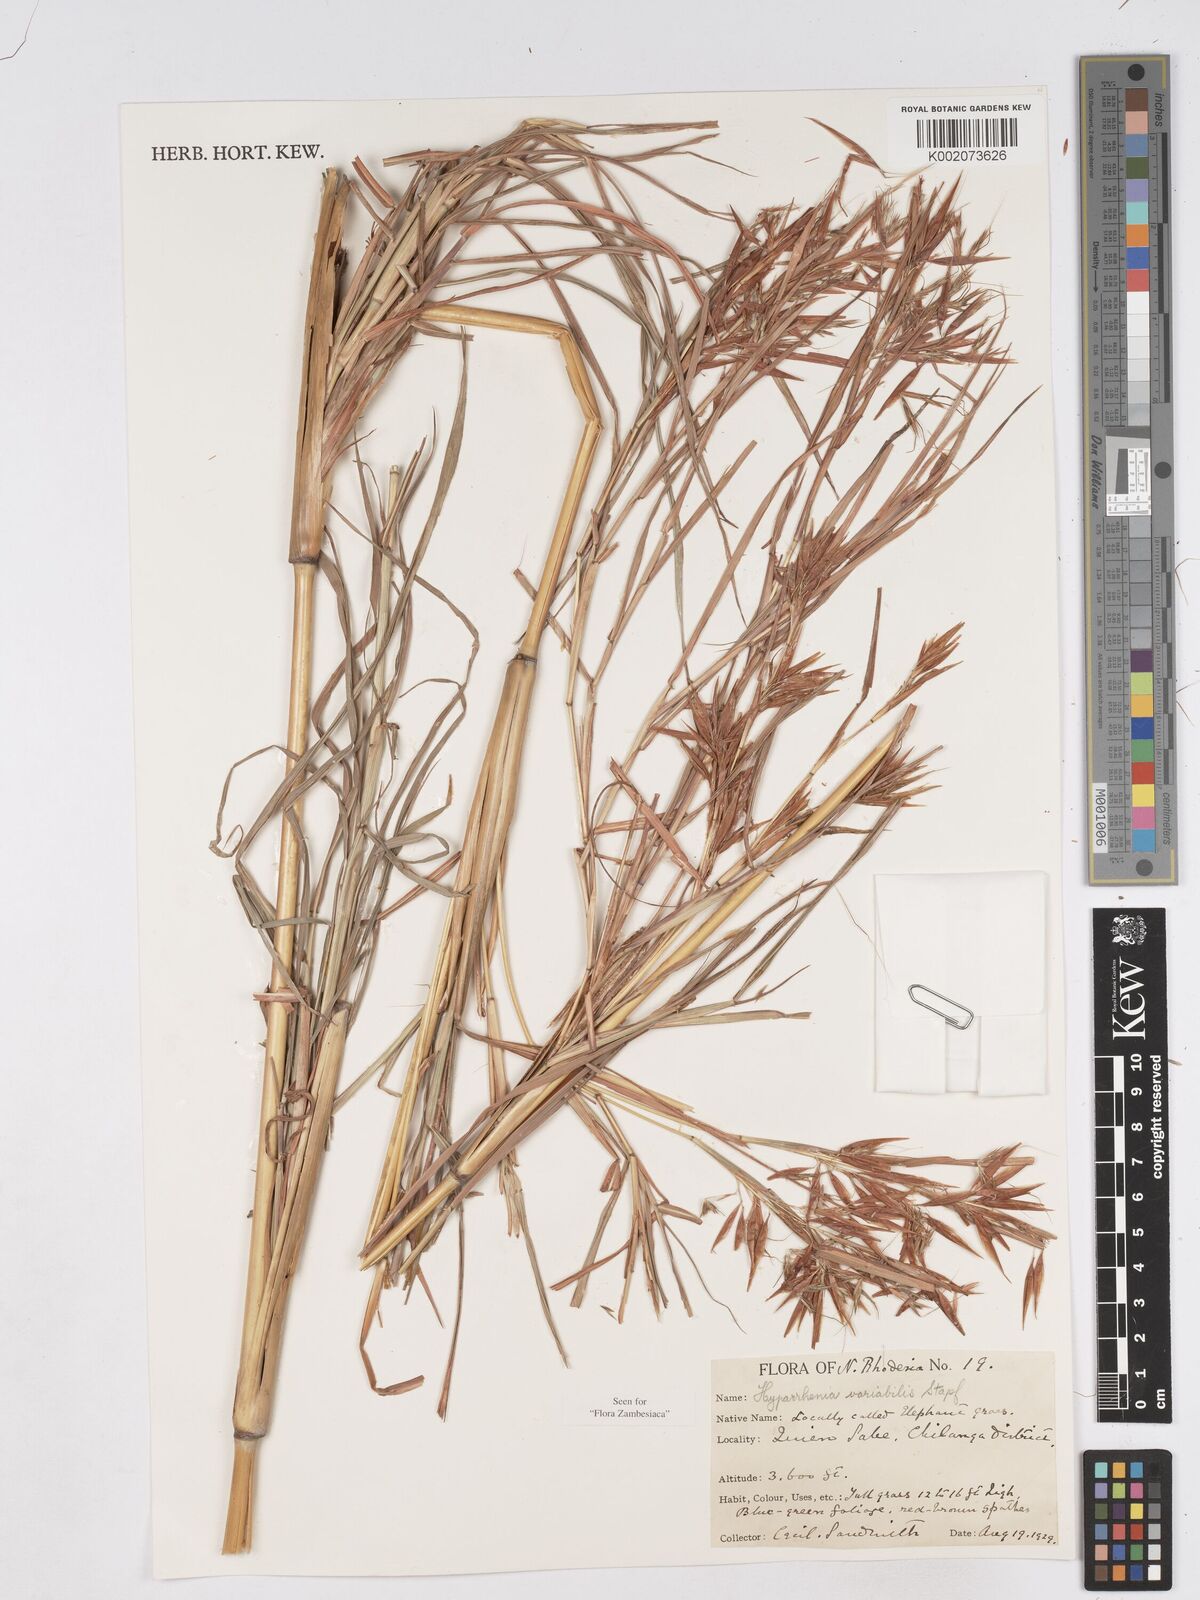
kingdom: Plantae
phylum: Tracheophyta
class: Liliopsida
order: Poales
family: Poaceae
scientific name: Poaceae
